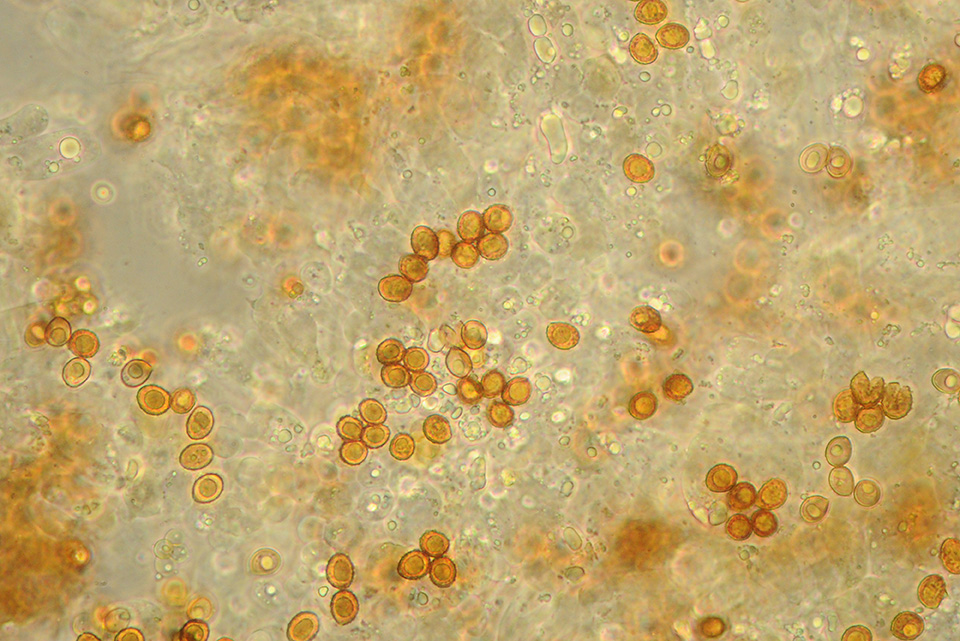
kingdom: Fungi
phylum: Basidiomycota
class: Agaricomycetes
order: Agaricales
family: Cortinariaceae
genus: Cortinarius
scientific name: Cortinarius pelerinii
